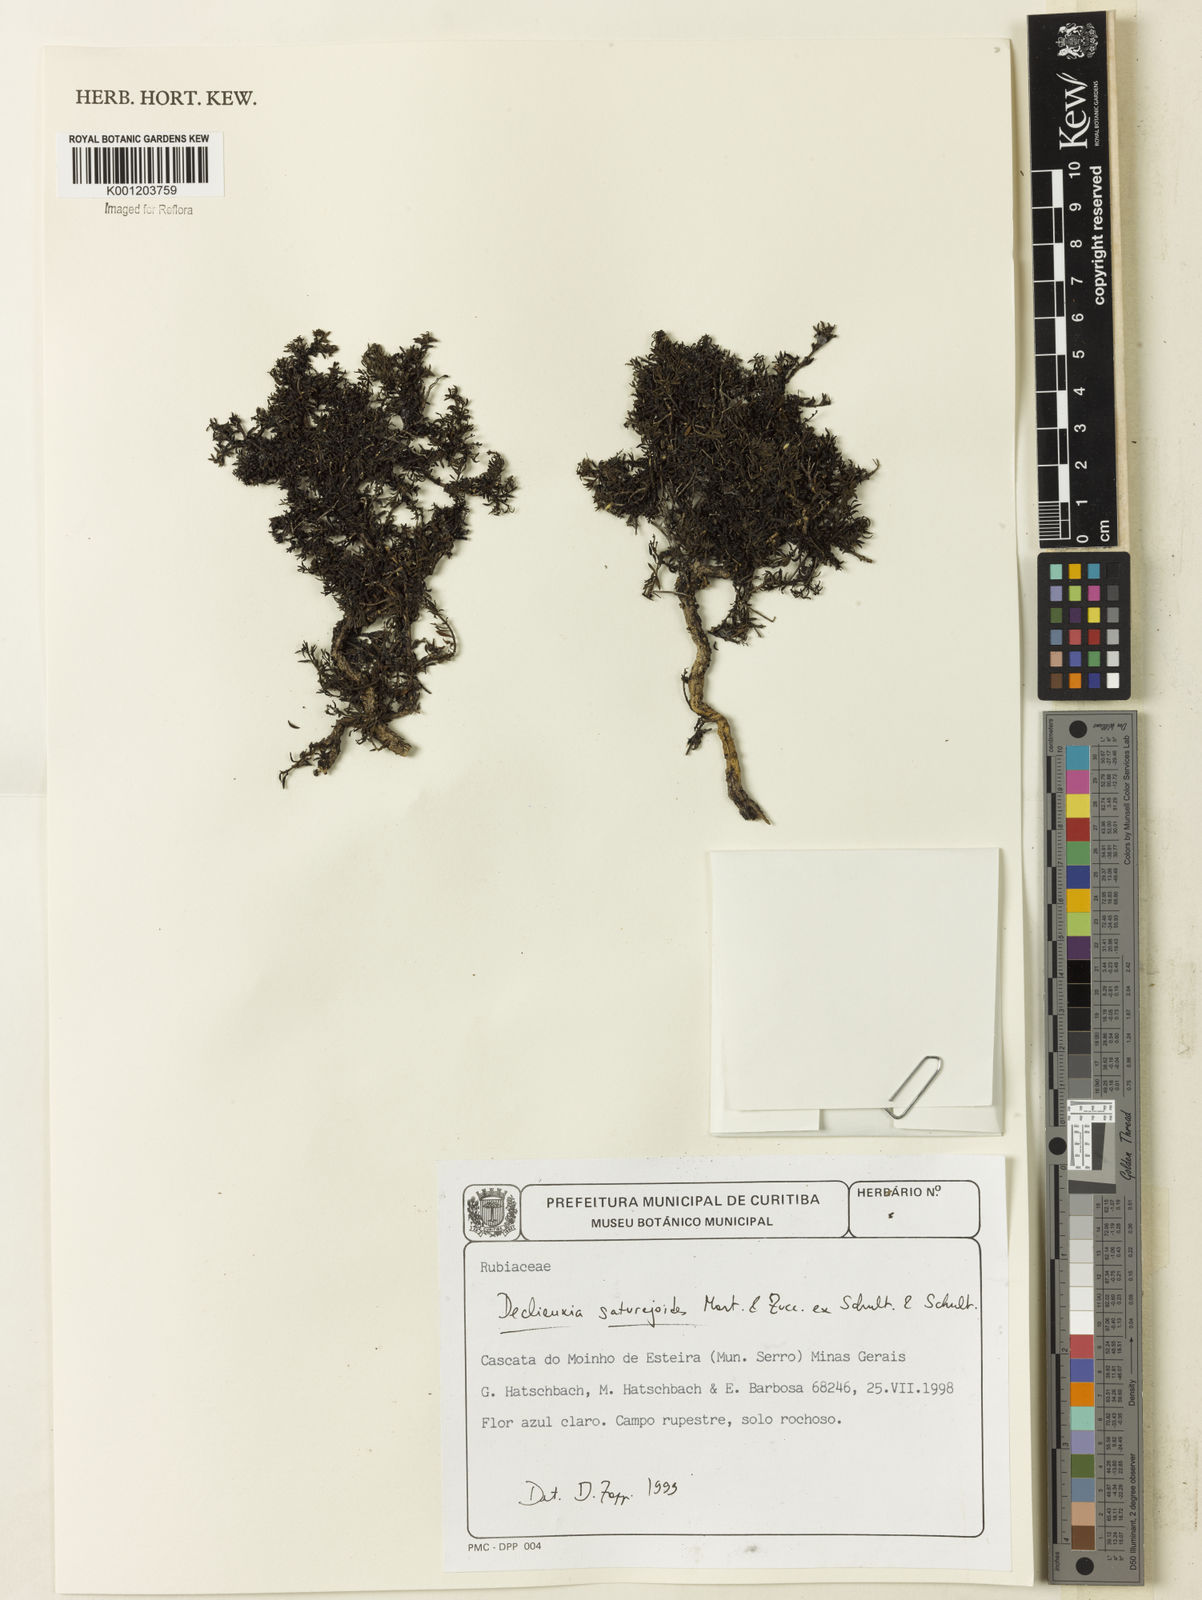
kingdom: Plantae
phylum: Tracheophyta
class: Magnoliopsida
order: Gentianales
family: Rubiaceae
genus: Declieuxia
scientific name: Declieuxia
